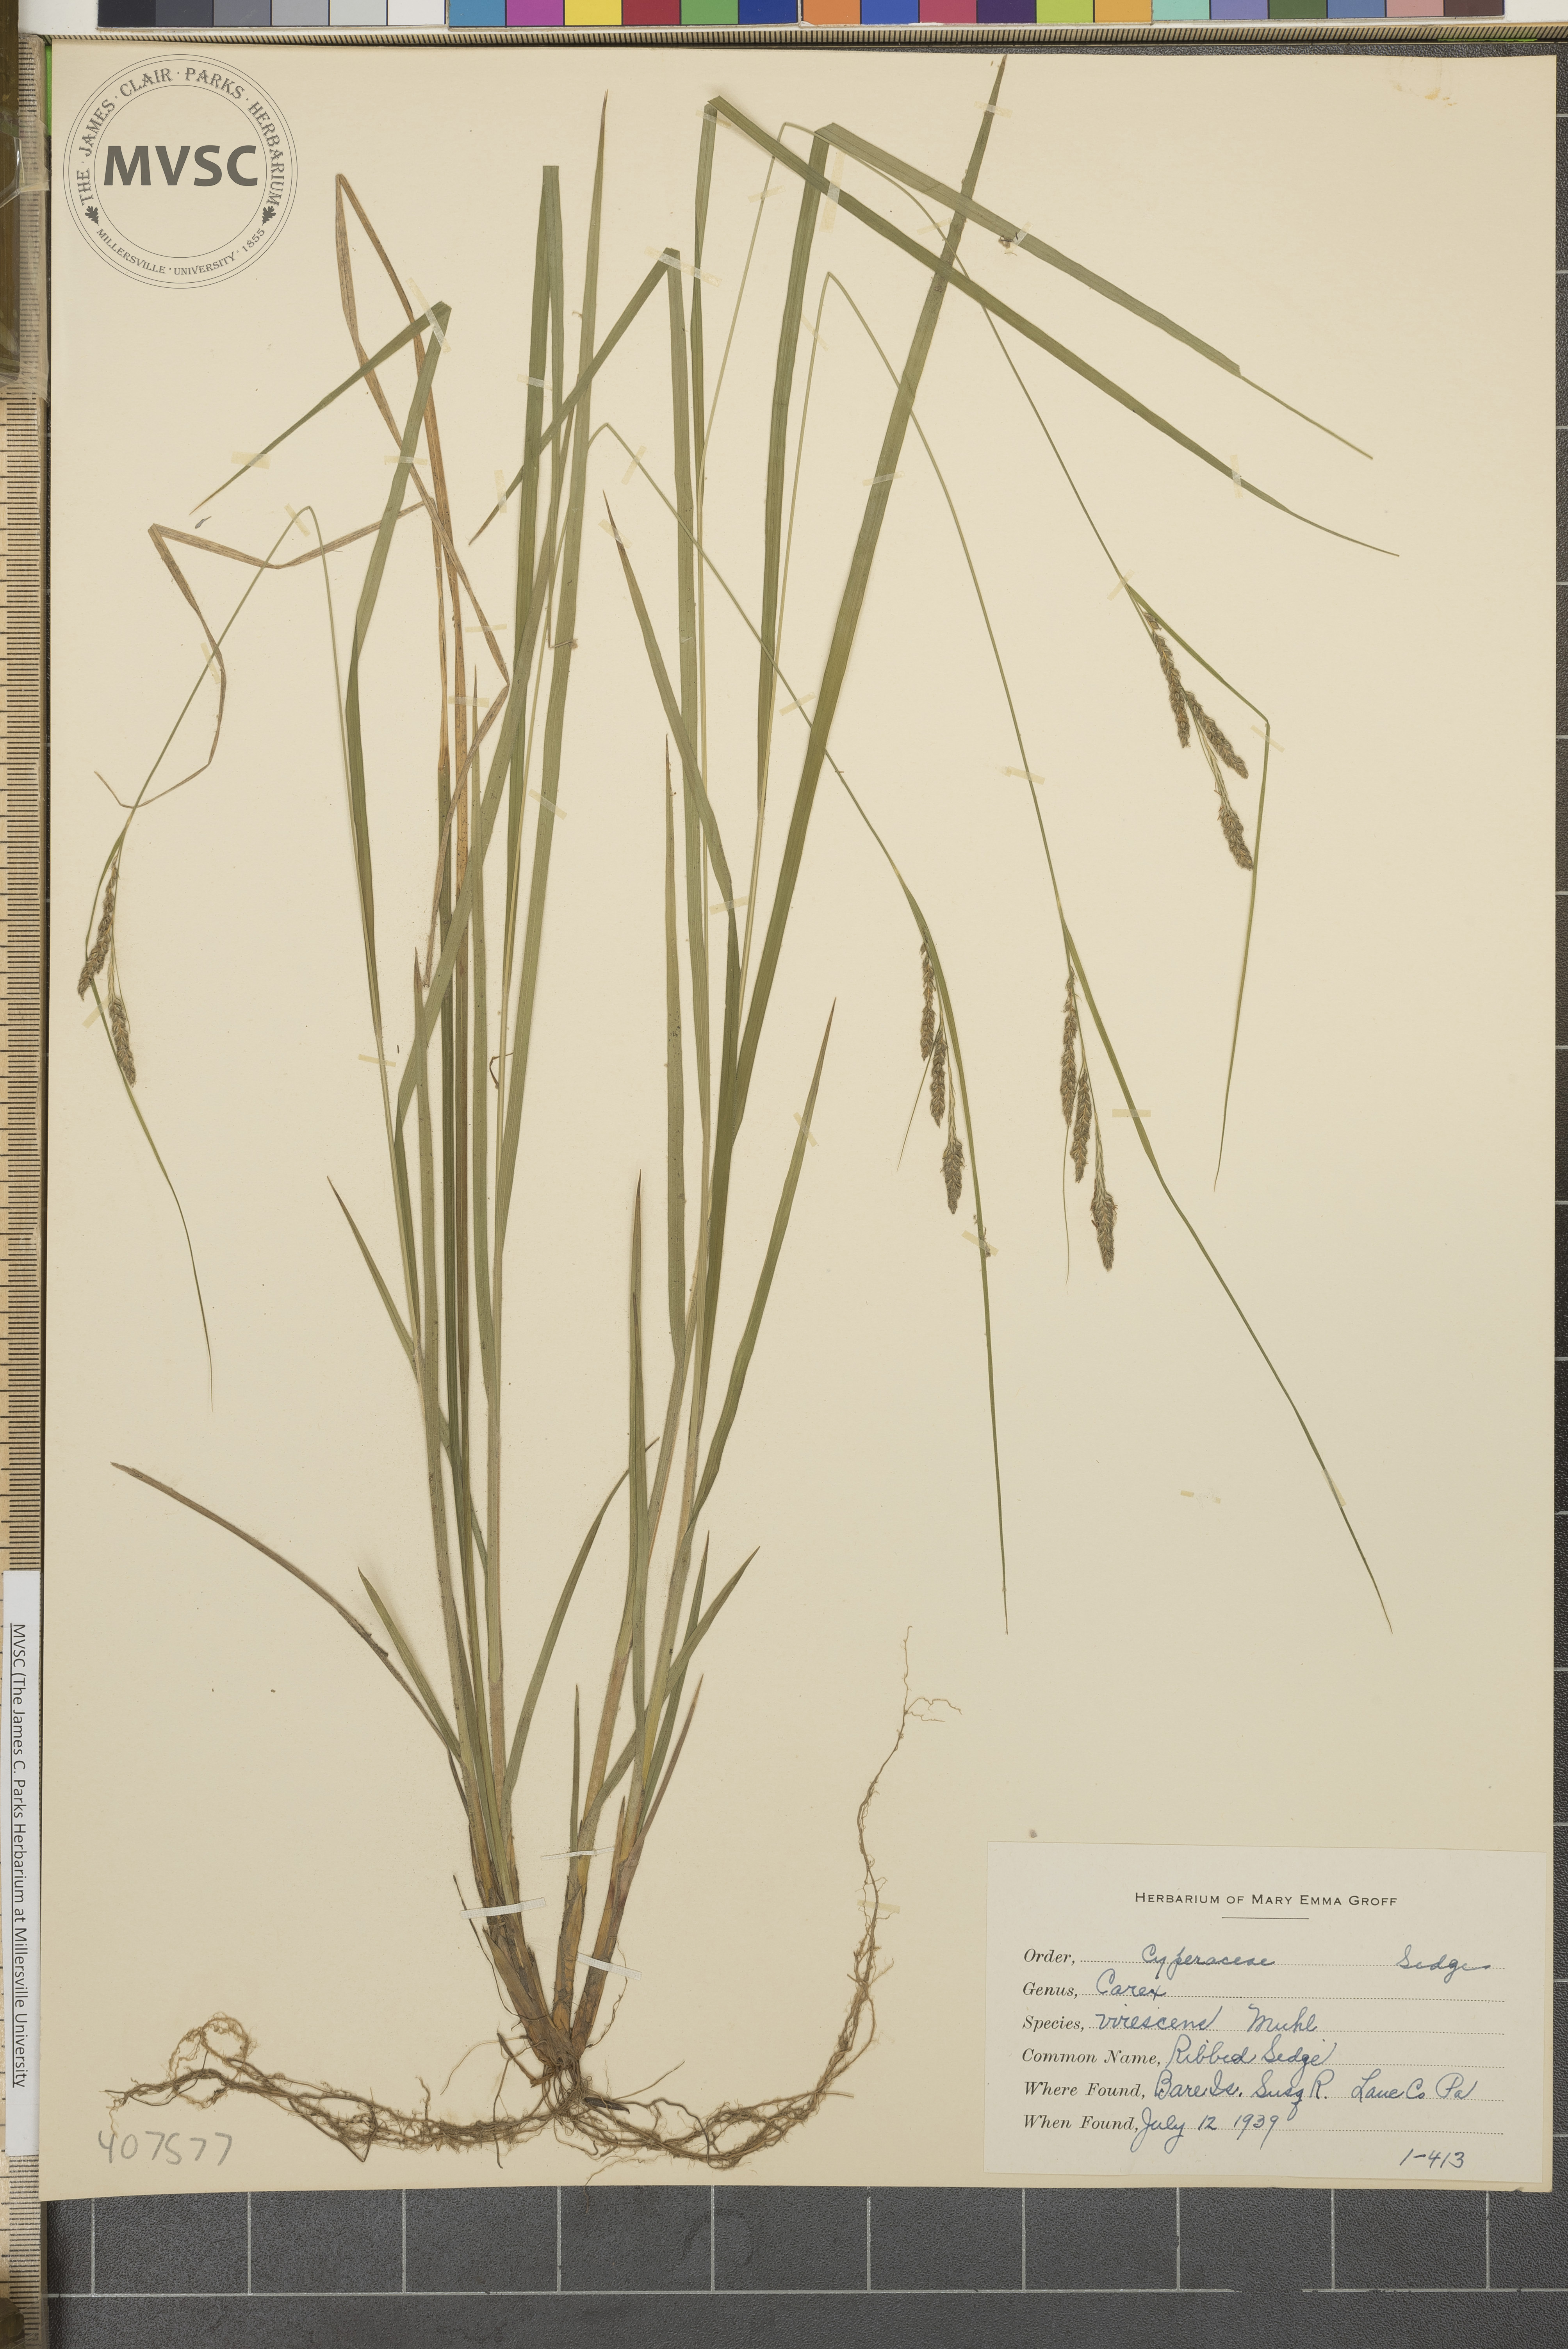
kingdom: Plantae
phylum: Tracheophyta
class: Liliopsida
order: Poales
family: Cyperaceae
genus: Carex
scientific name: Carex virescens
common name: Ribbed Sedge
